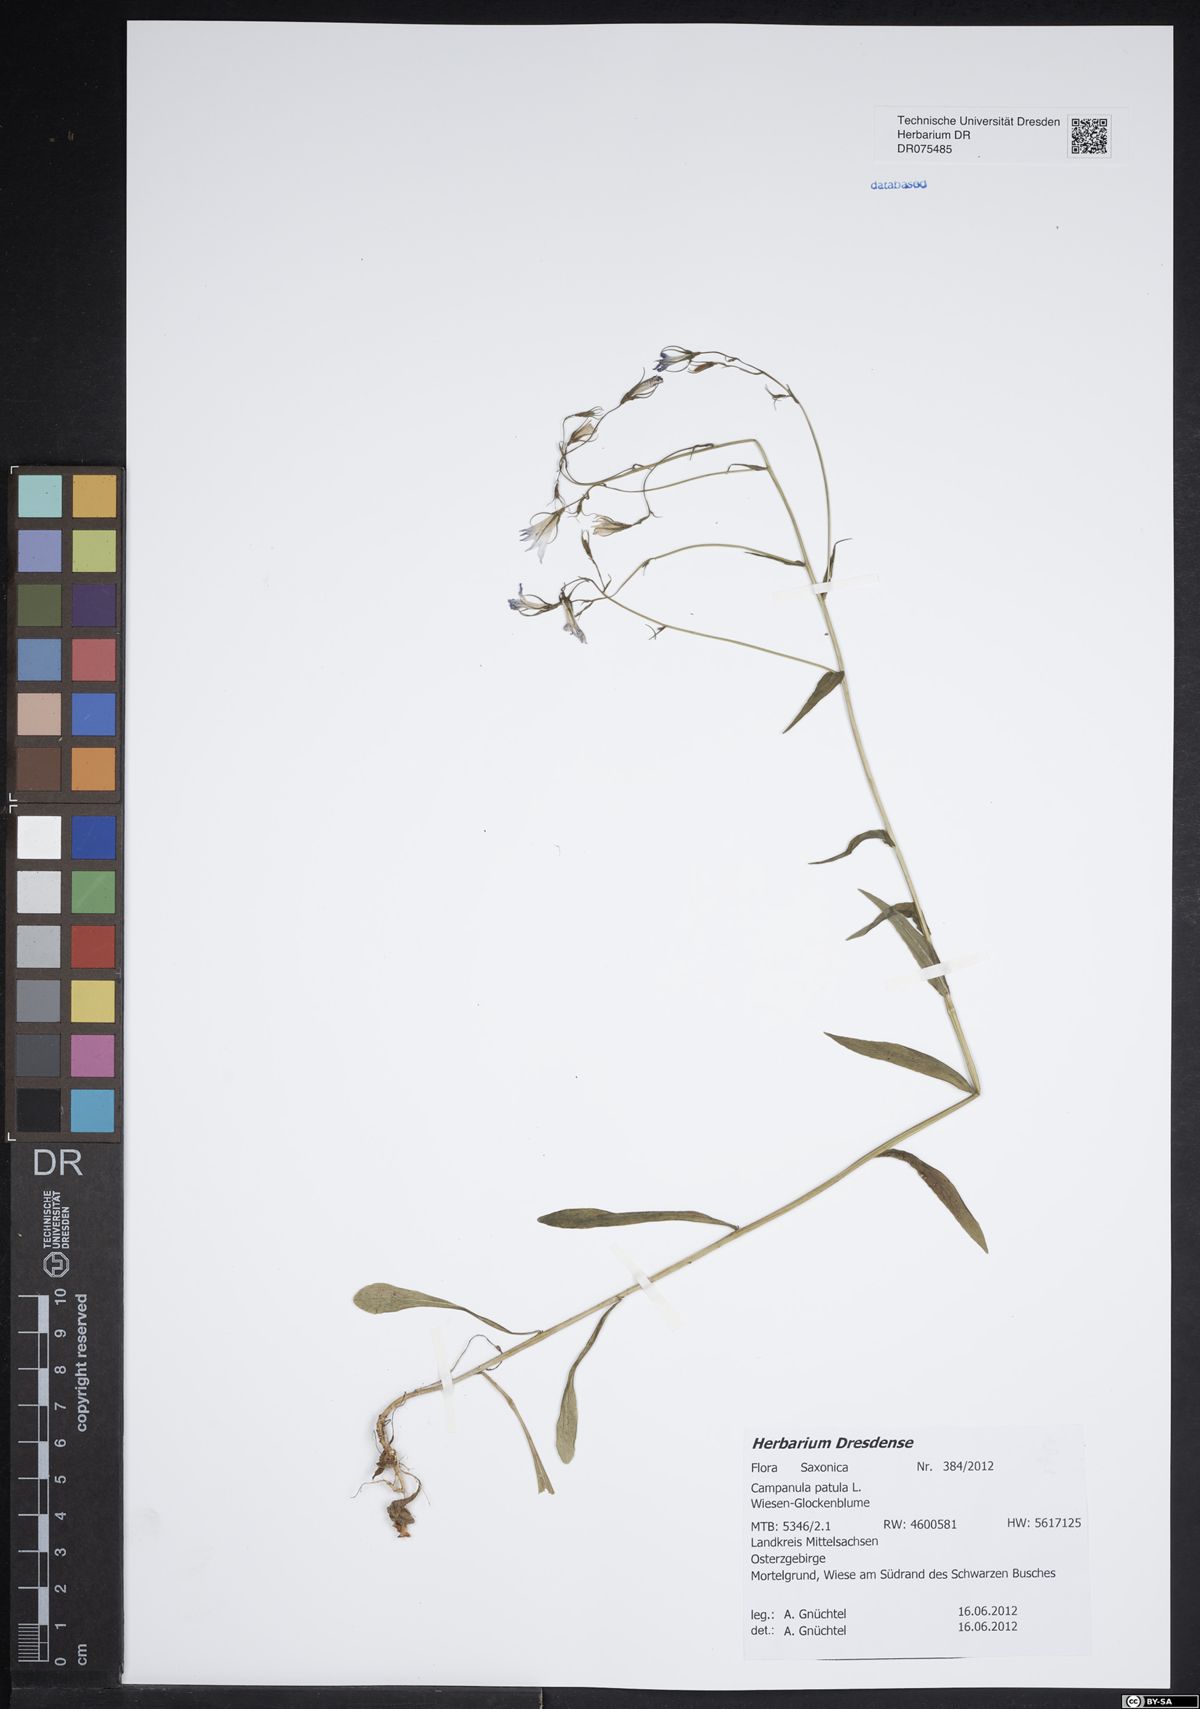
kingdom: Plantae
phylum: Tracheophyta
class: Magnoliopsida
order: Asterales
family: Campanulaceae
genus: Campanula
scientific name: Campanula patula
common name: Spreading bellflower
